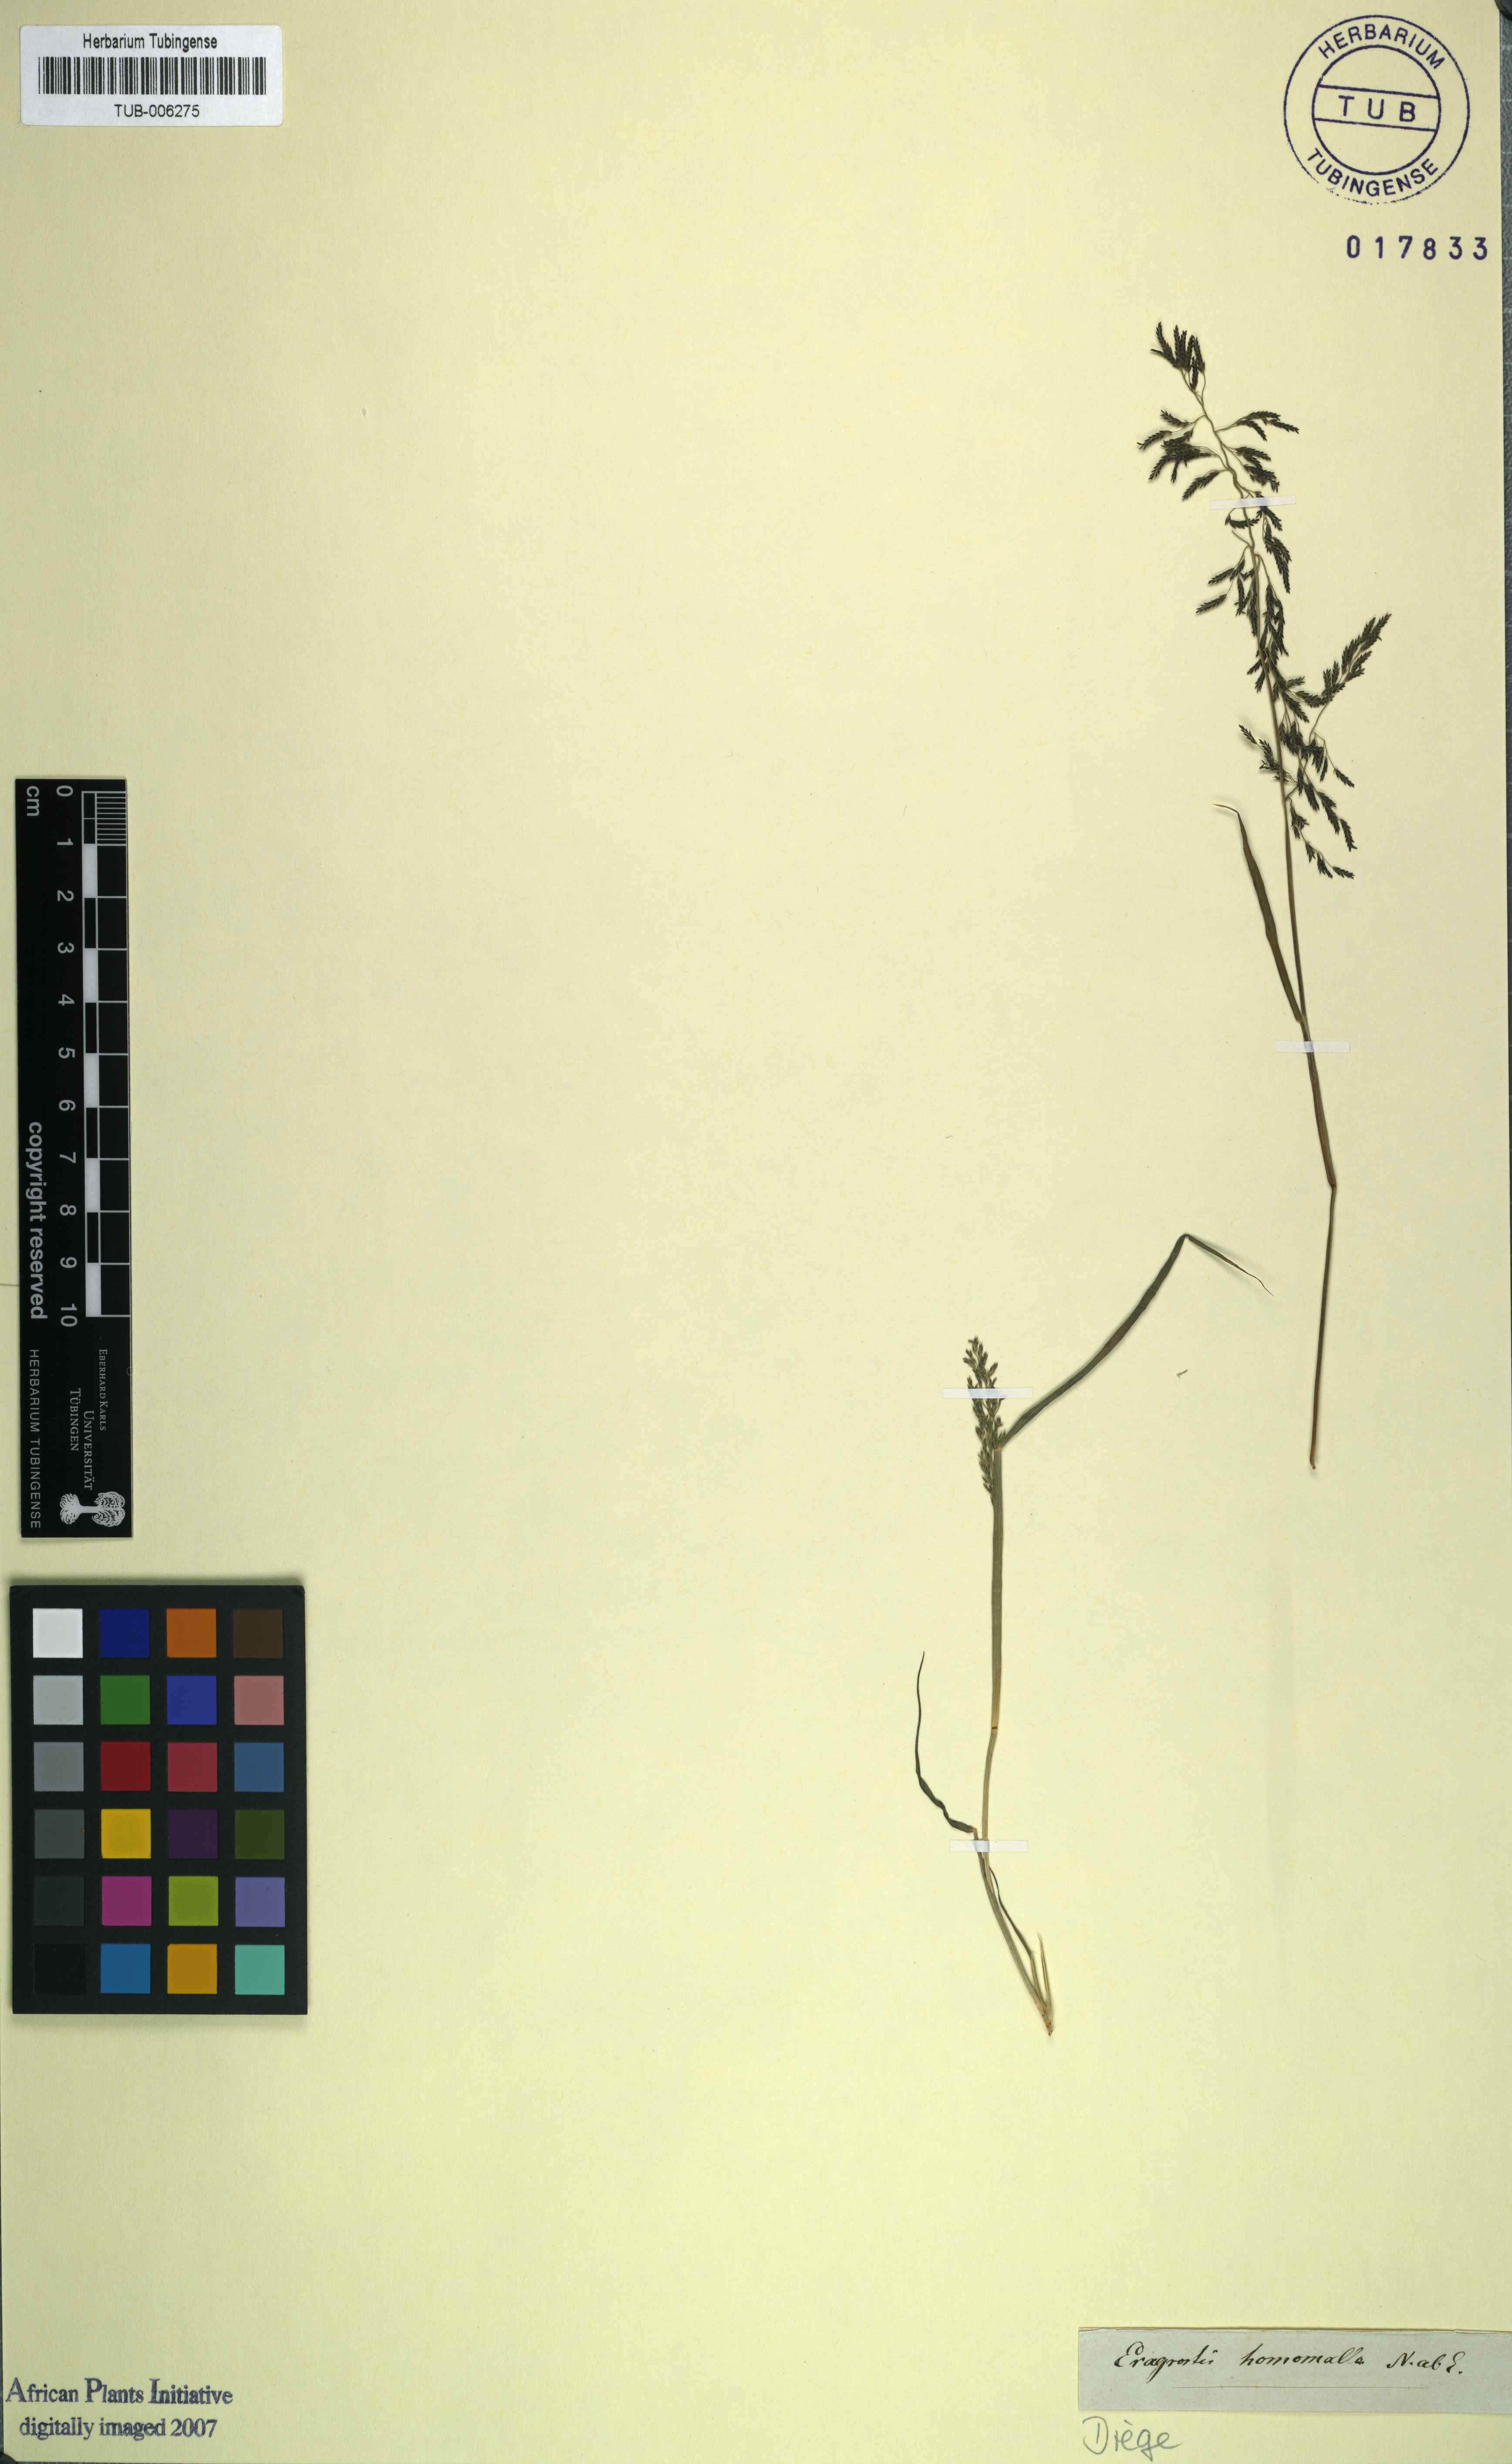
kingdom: Plantae
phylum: Tracheophyta
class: Liliopsida
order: Poales
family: Poaceae
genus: Eragrostis
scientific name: Eragrostis homomalla
